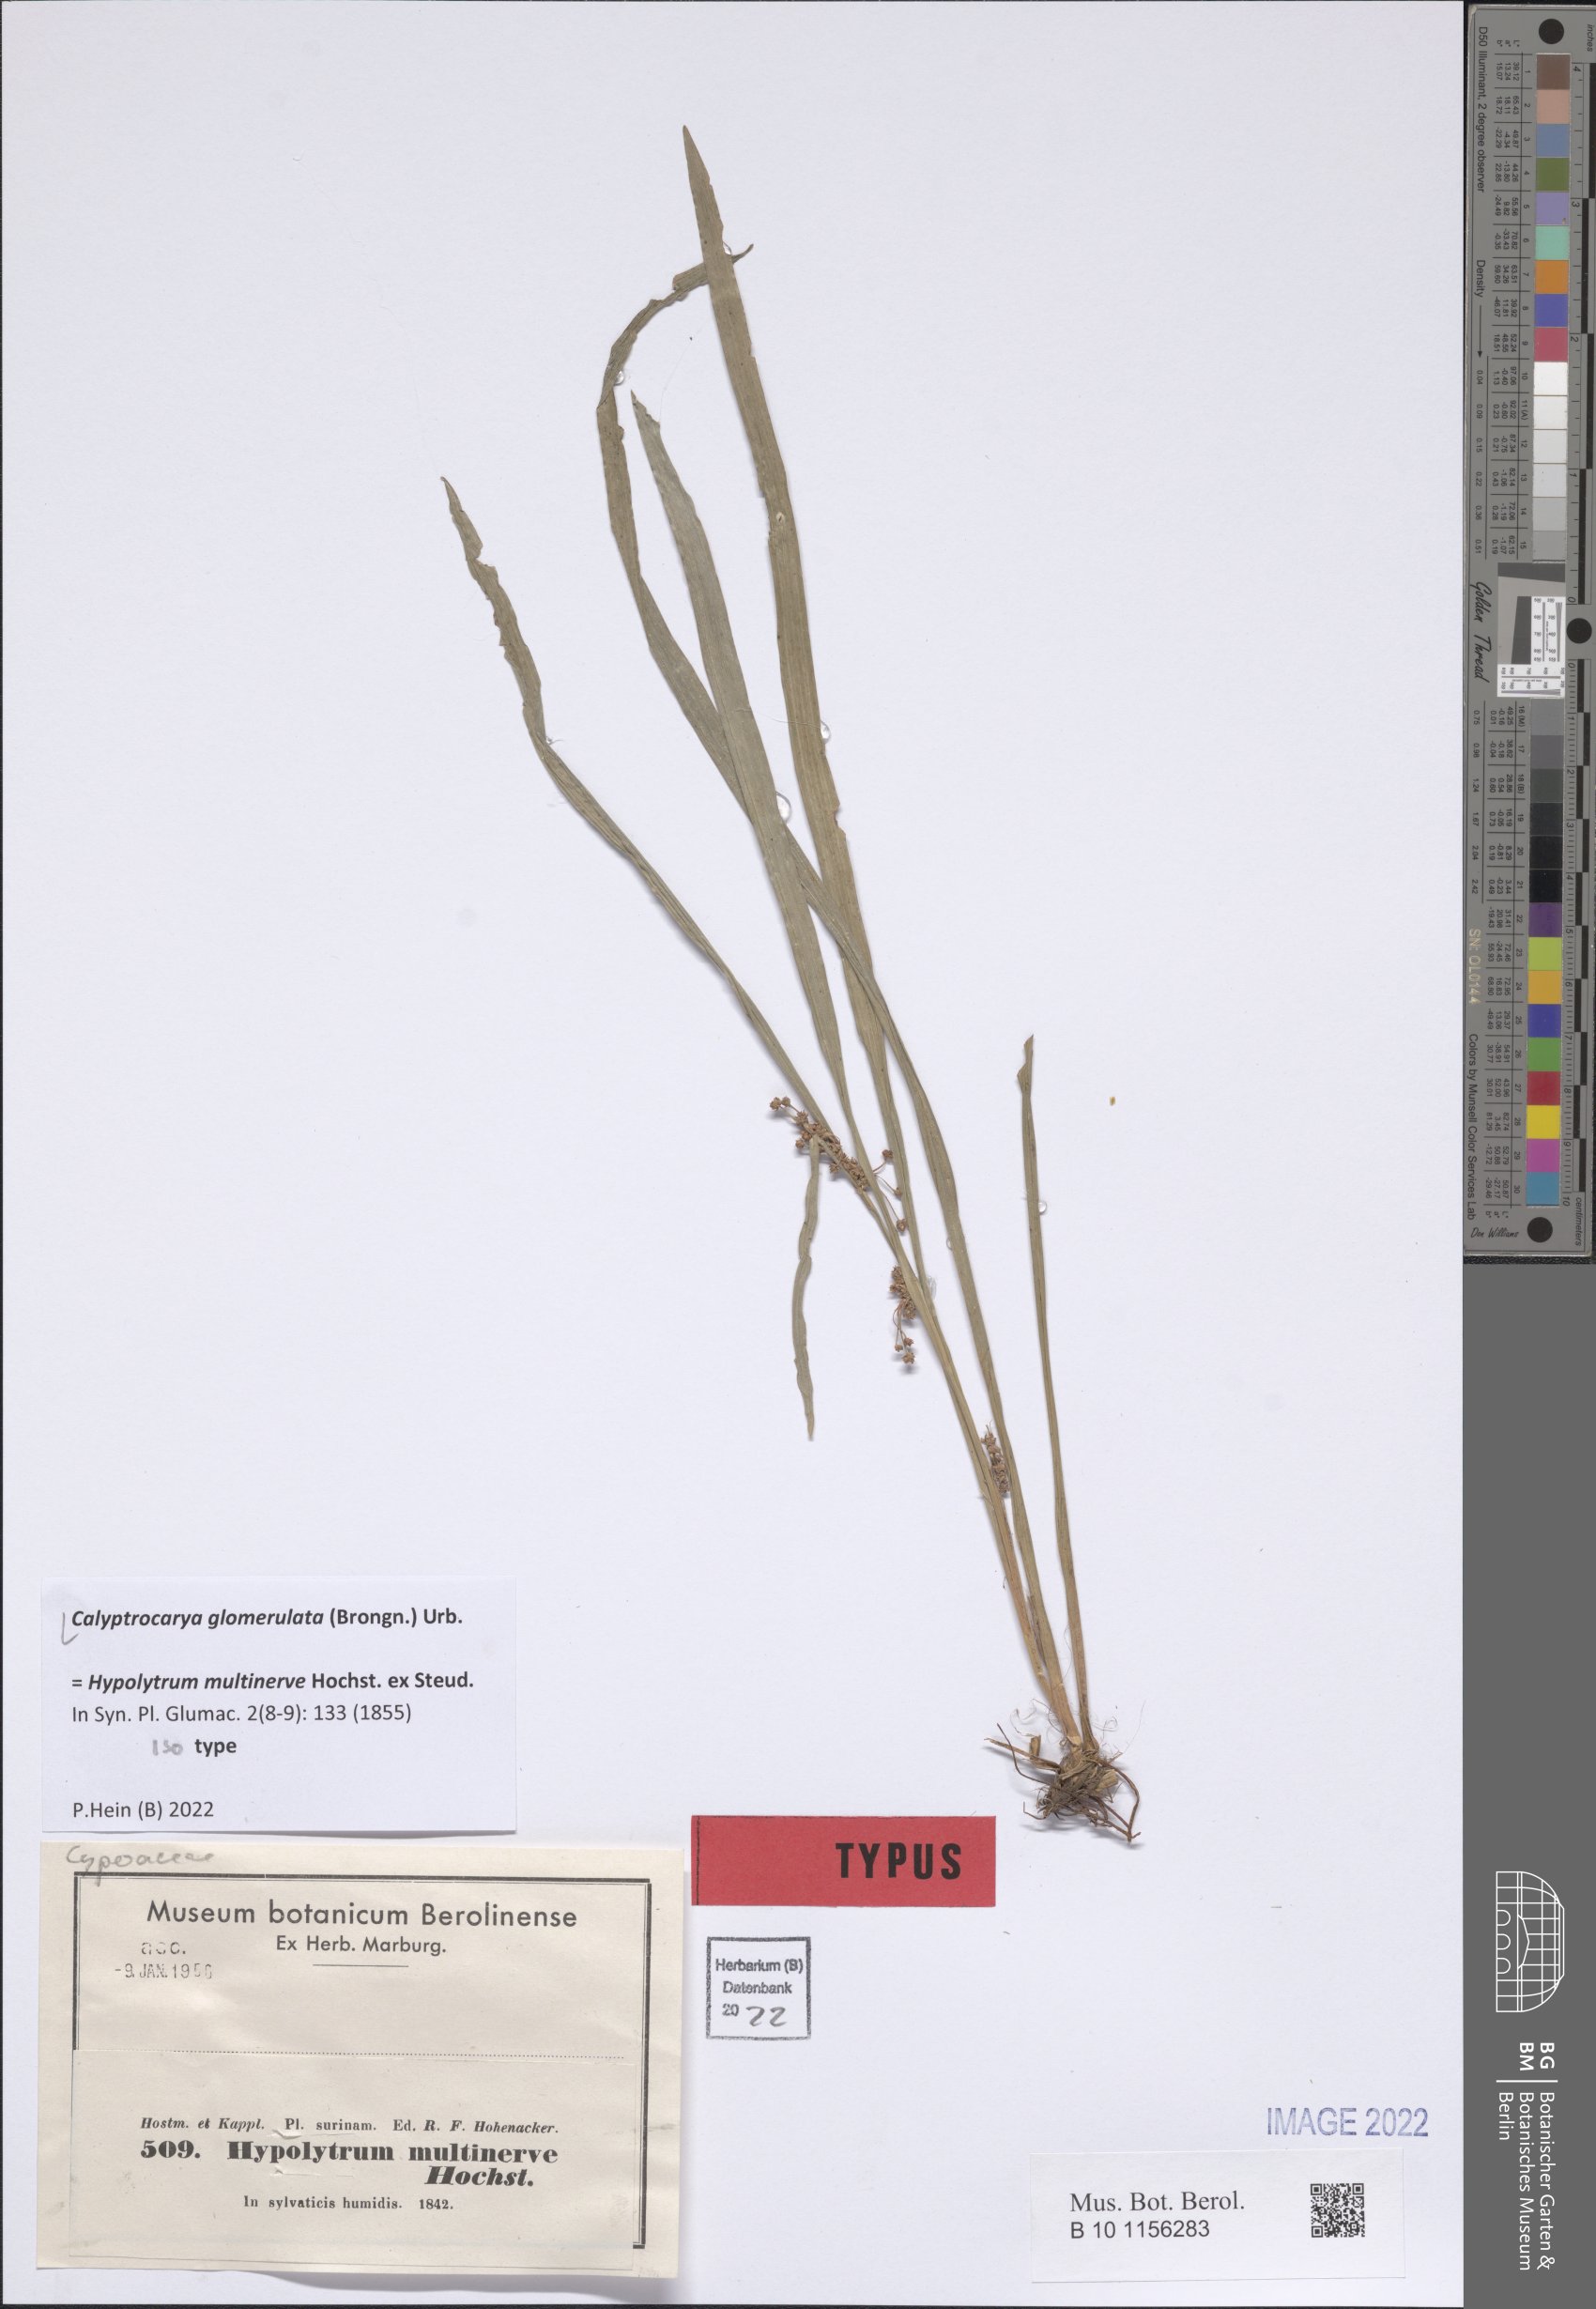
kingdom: Plantae
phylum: Tracheophyta
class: Liliopsida
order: Poales
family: Cyperaceae
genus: Calyptrocarya
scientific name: Calyptrocarya glomerulata
